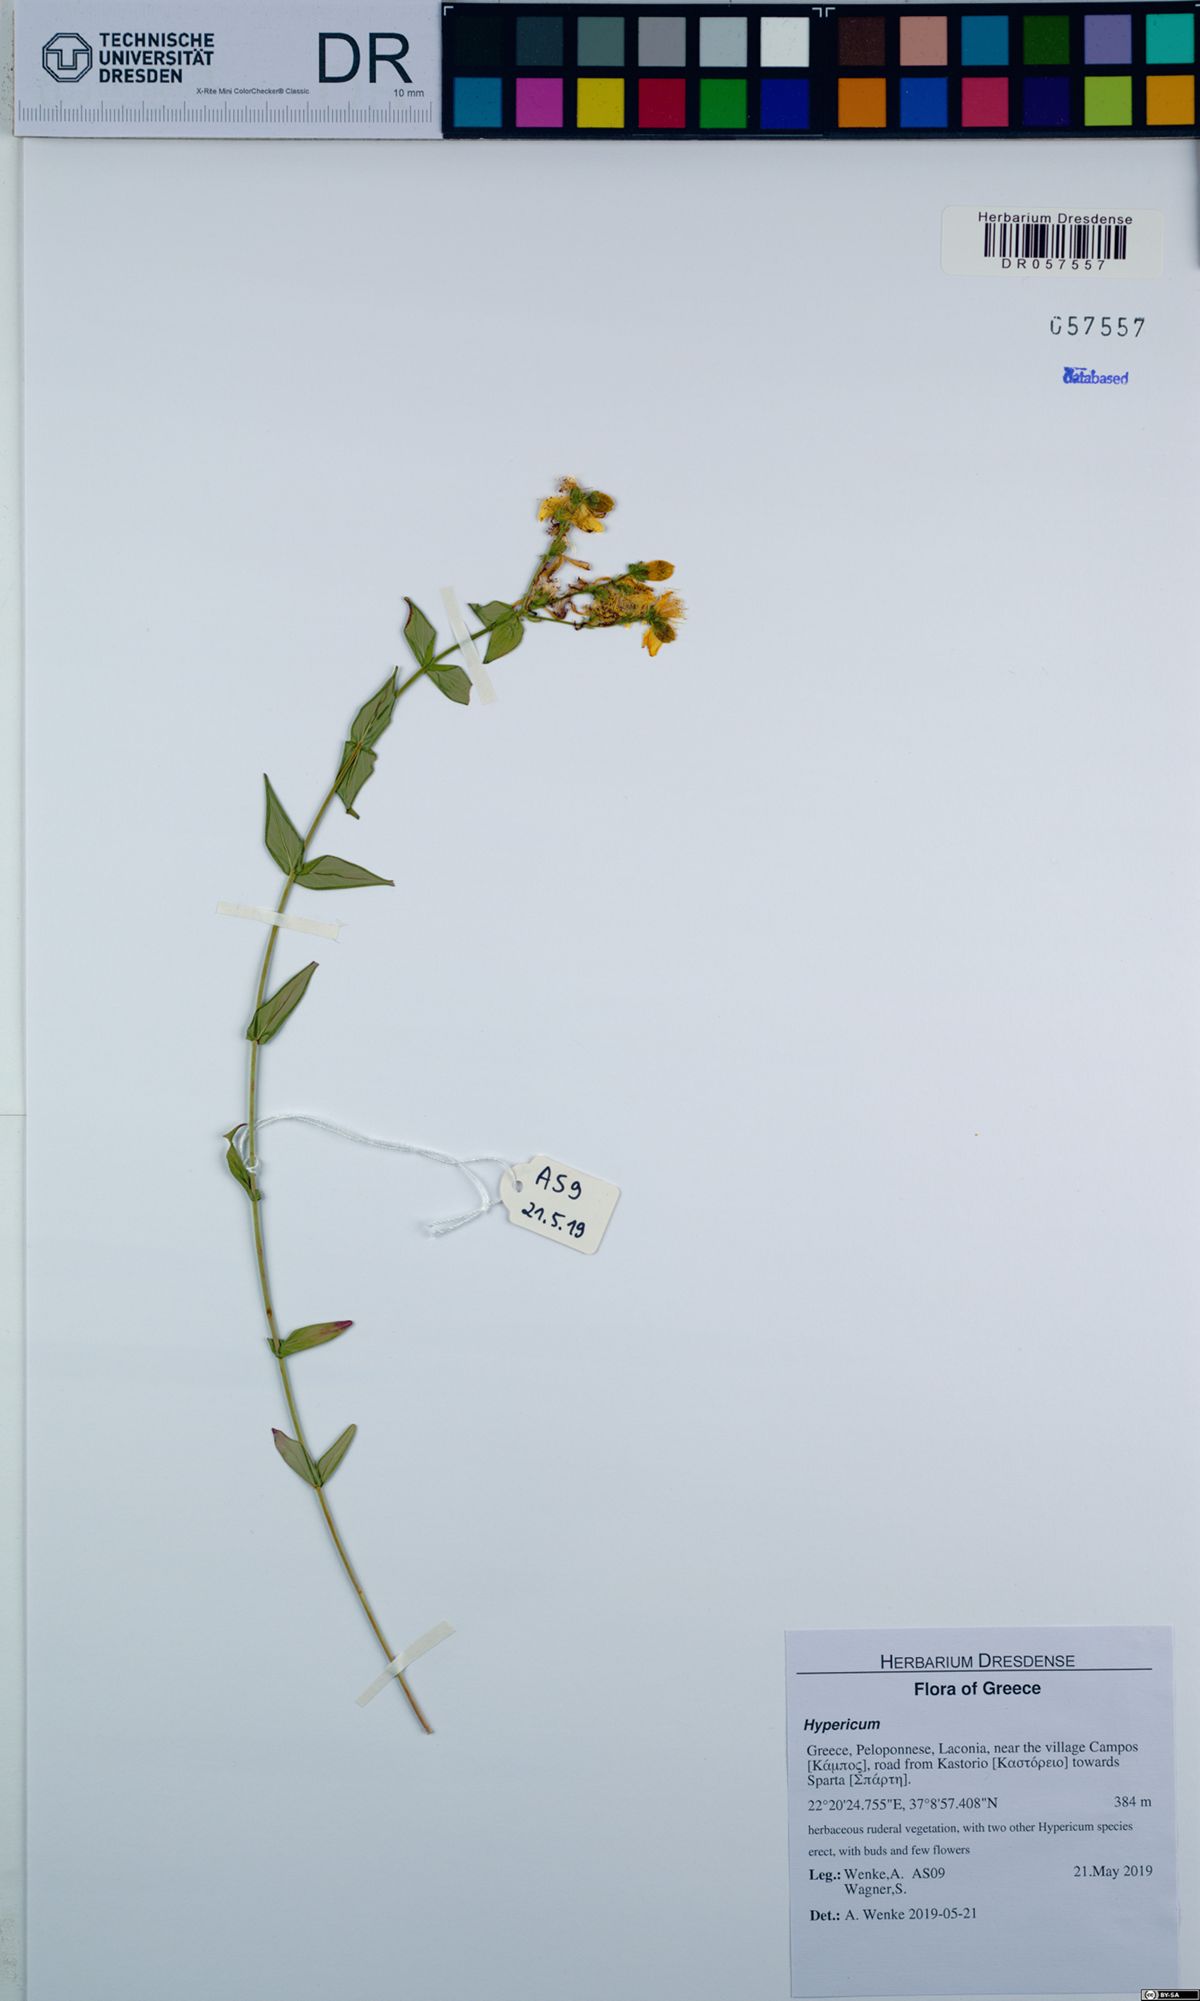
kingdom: Plantae
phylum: Tracheophyta
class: Magnoliopsida
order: Malpighiales
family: Hypericaceae
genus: Hypericum
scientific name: Hypericum perfoliatum
